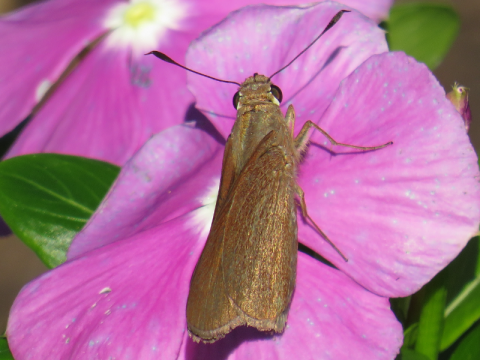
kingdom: Animalia
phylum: Arthropoda
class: Insecta
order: Lepidoptera
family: Hesperiidae
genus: Asbolis
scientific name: Asbolis capucinus
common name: Monk Skipper
